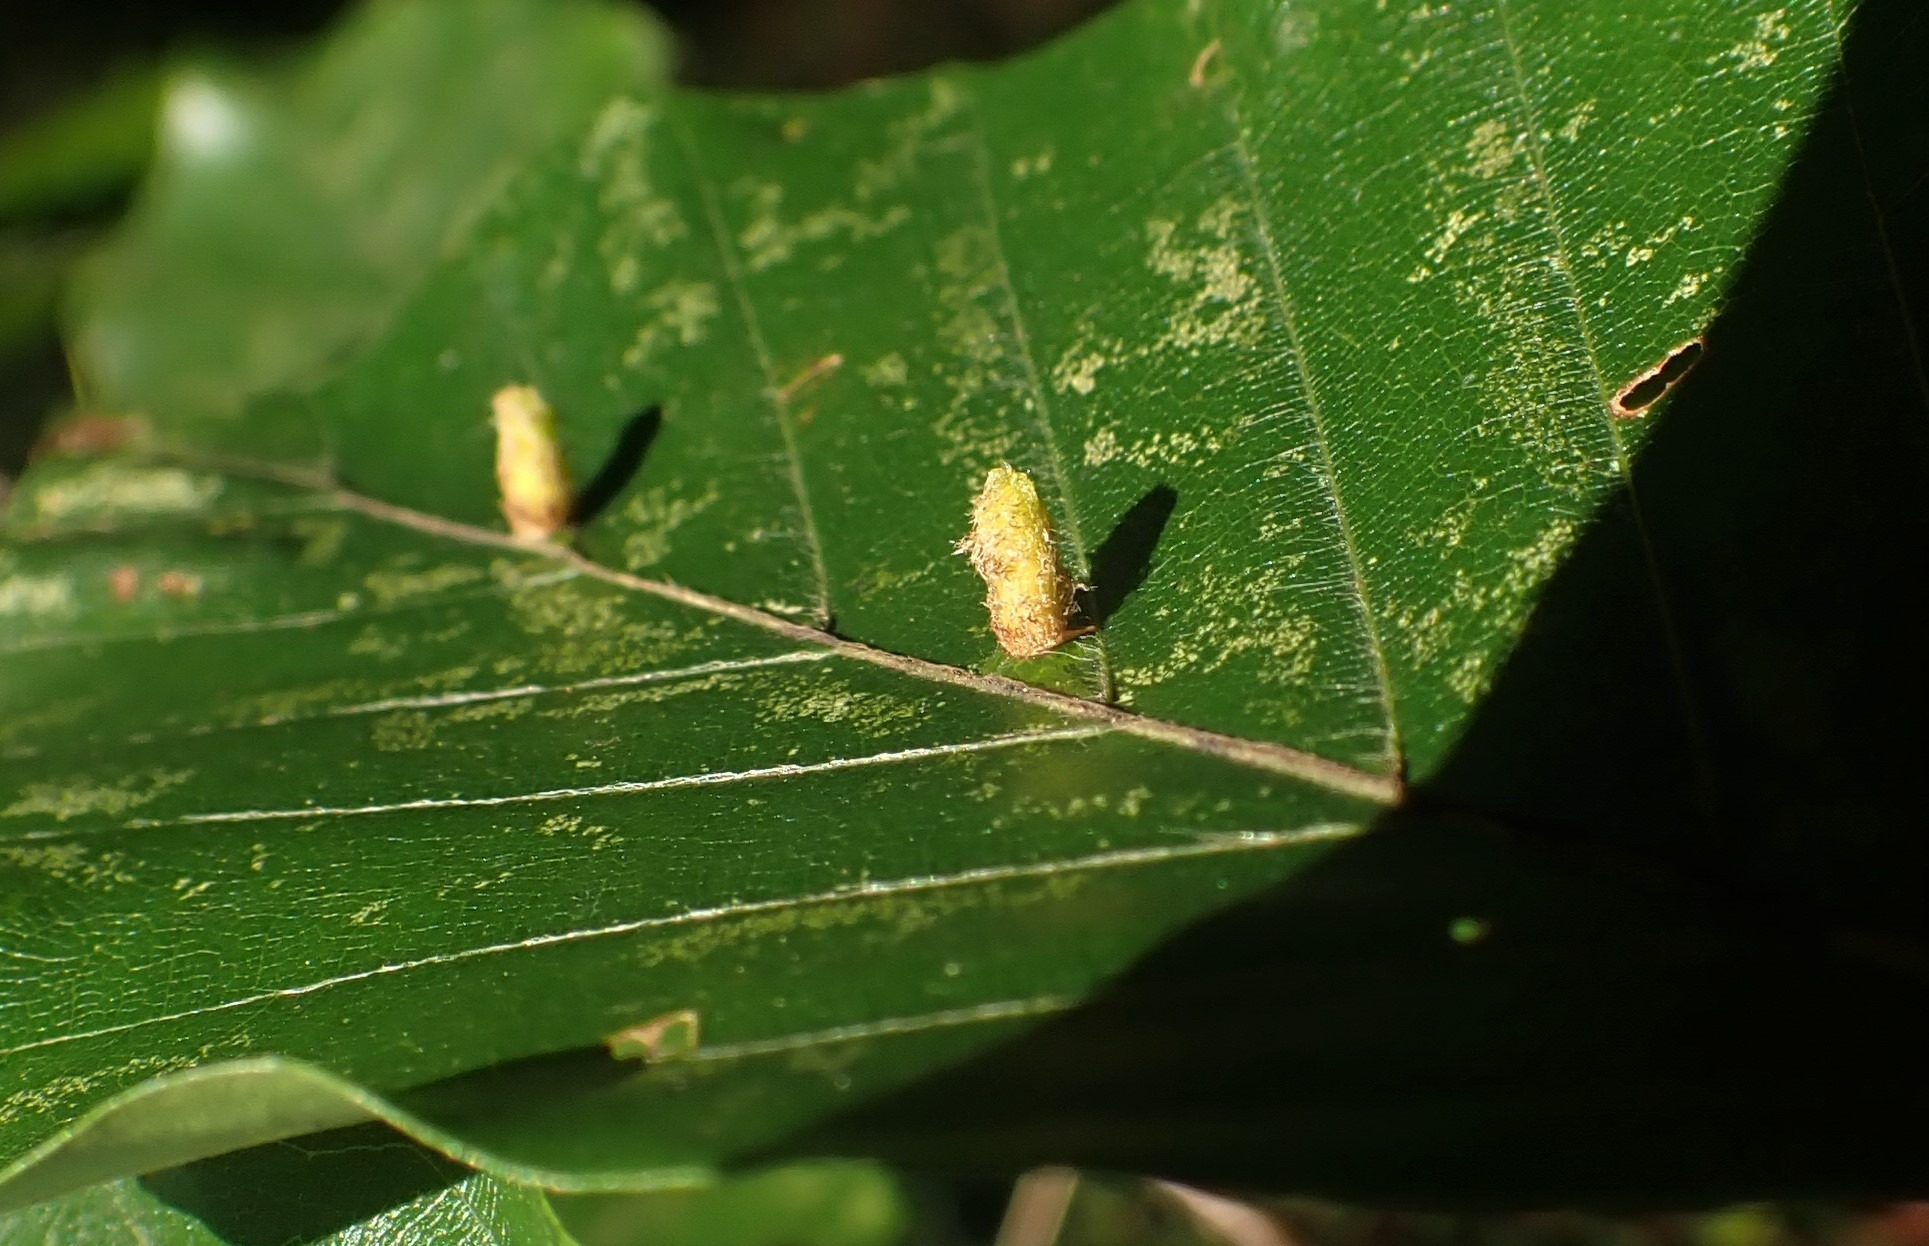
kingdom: Animalia
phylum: Arthropoda
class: Insecta
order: Diptera
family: Cecidomyiidae
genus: Hartigiola
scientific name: Hartigiola annulipes
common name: Skovtroldegalmyg
